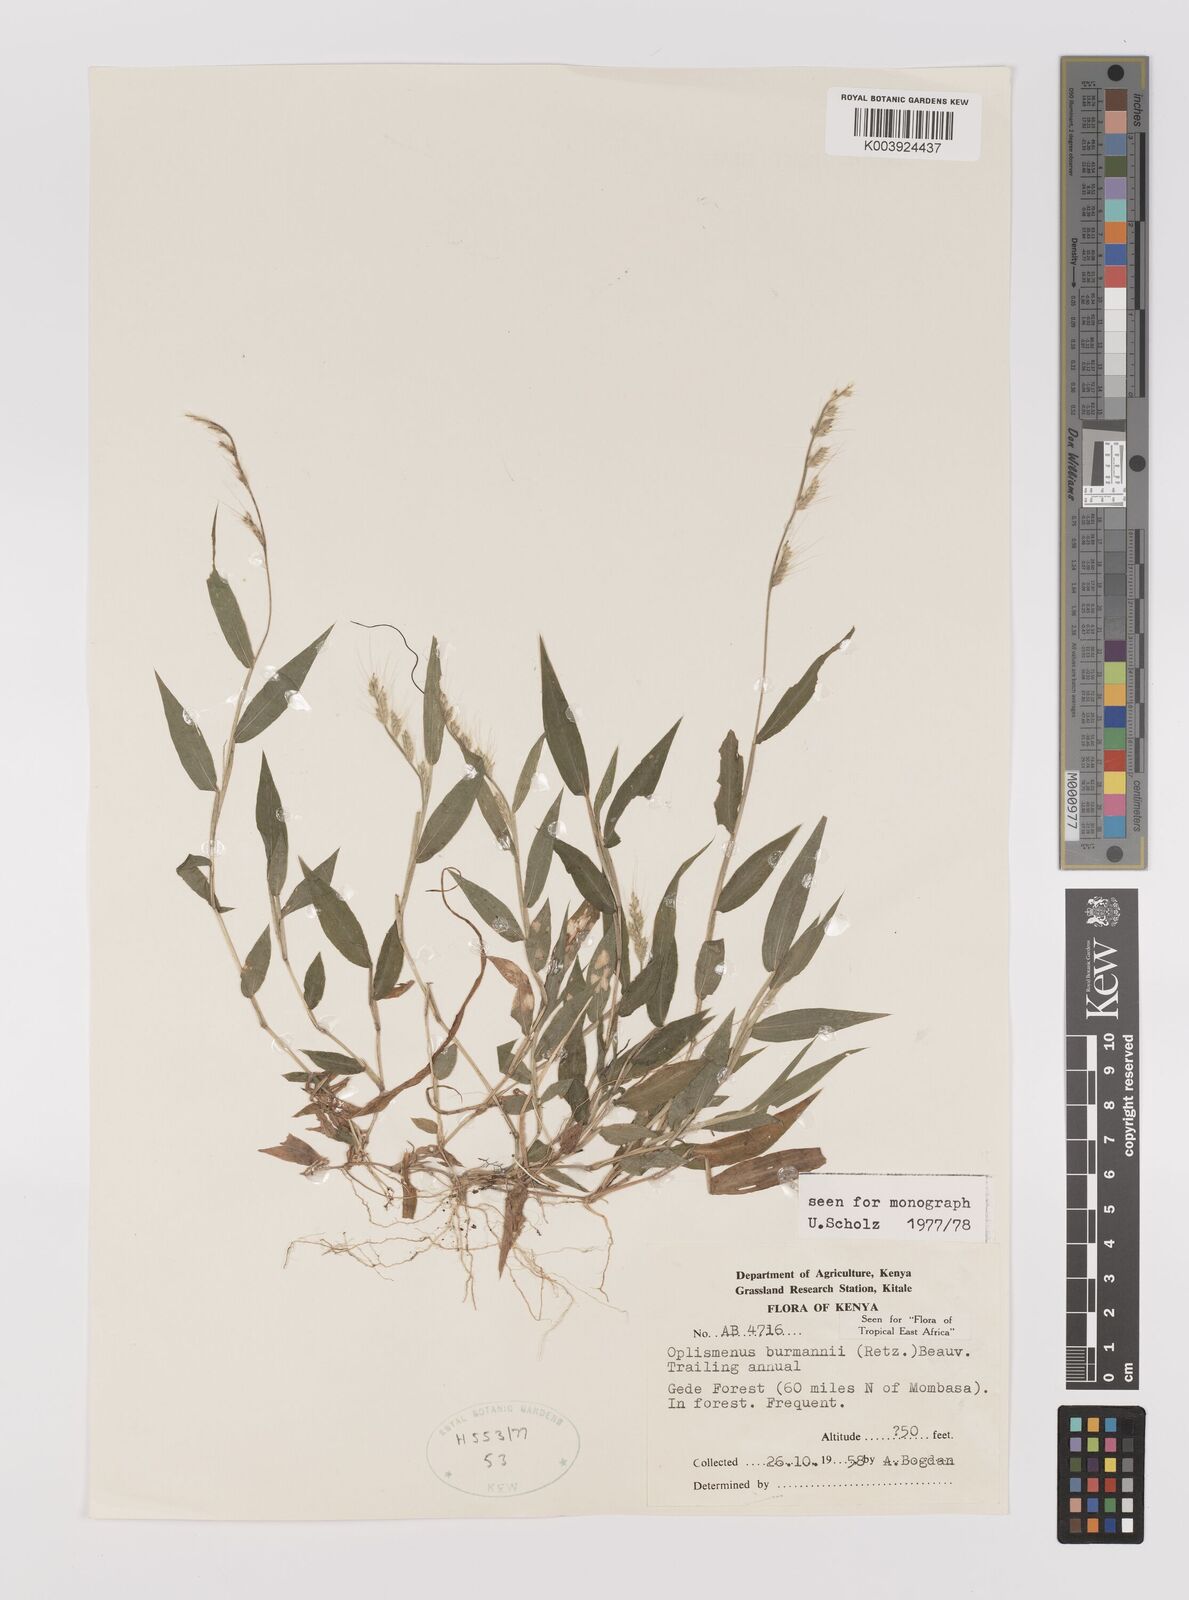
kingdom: Plantae
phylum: Tracheophyta
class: Liliopsida
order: Poales
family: Poaceae
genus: Oplismenus
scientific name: Oplismenus burmanni
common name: Burmann's basketgrass
